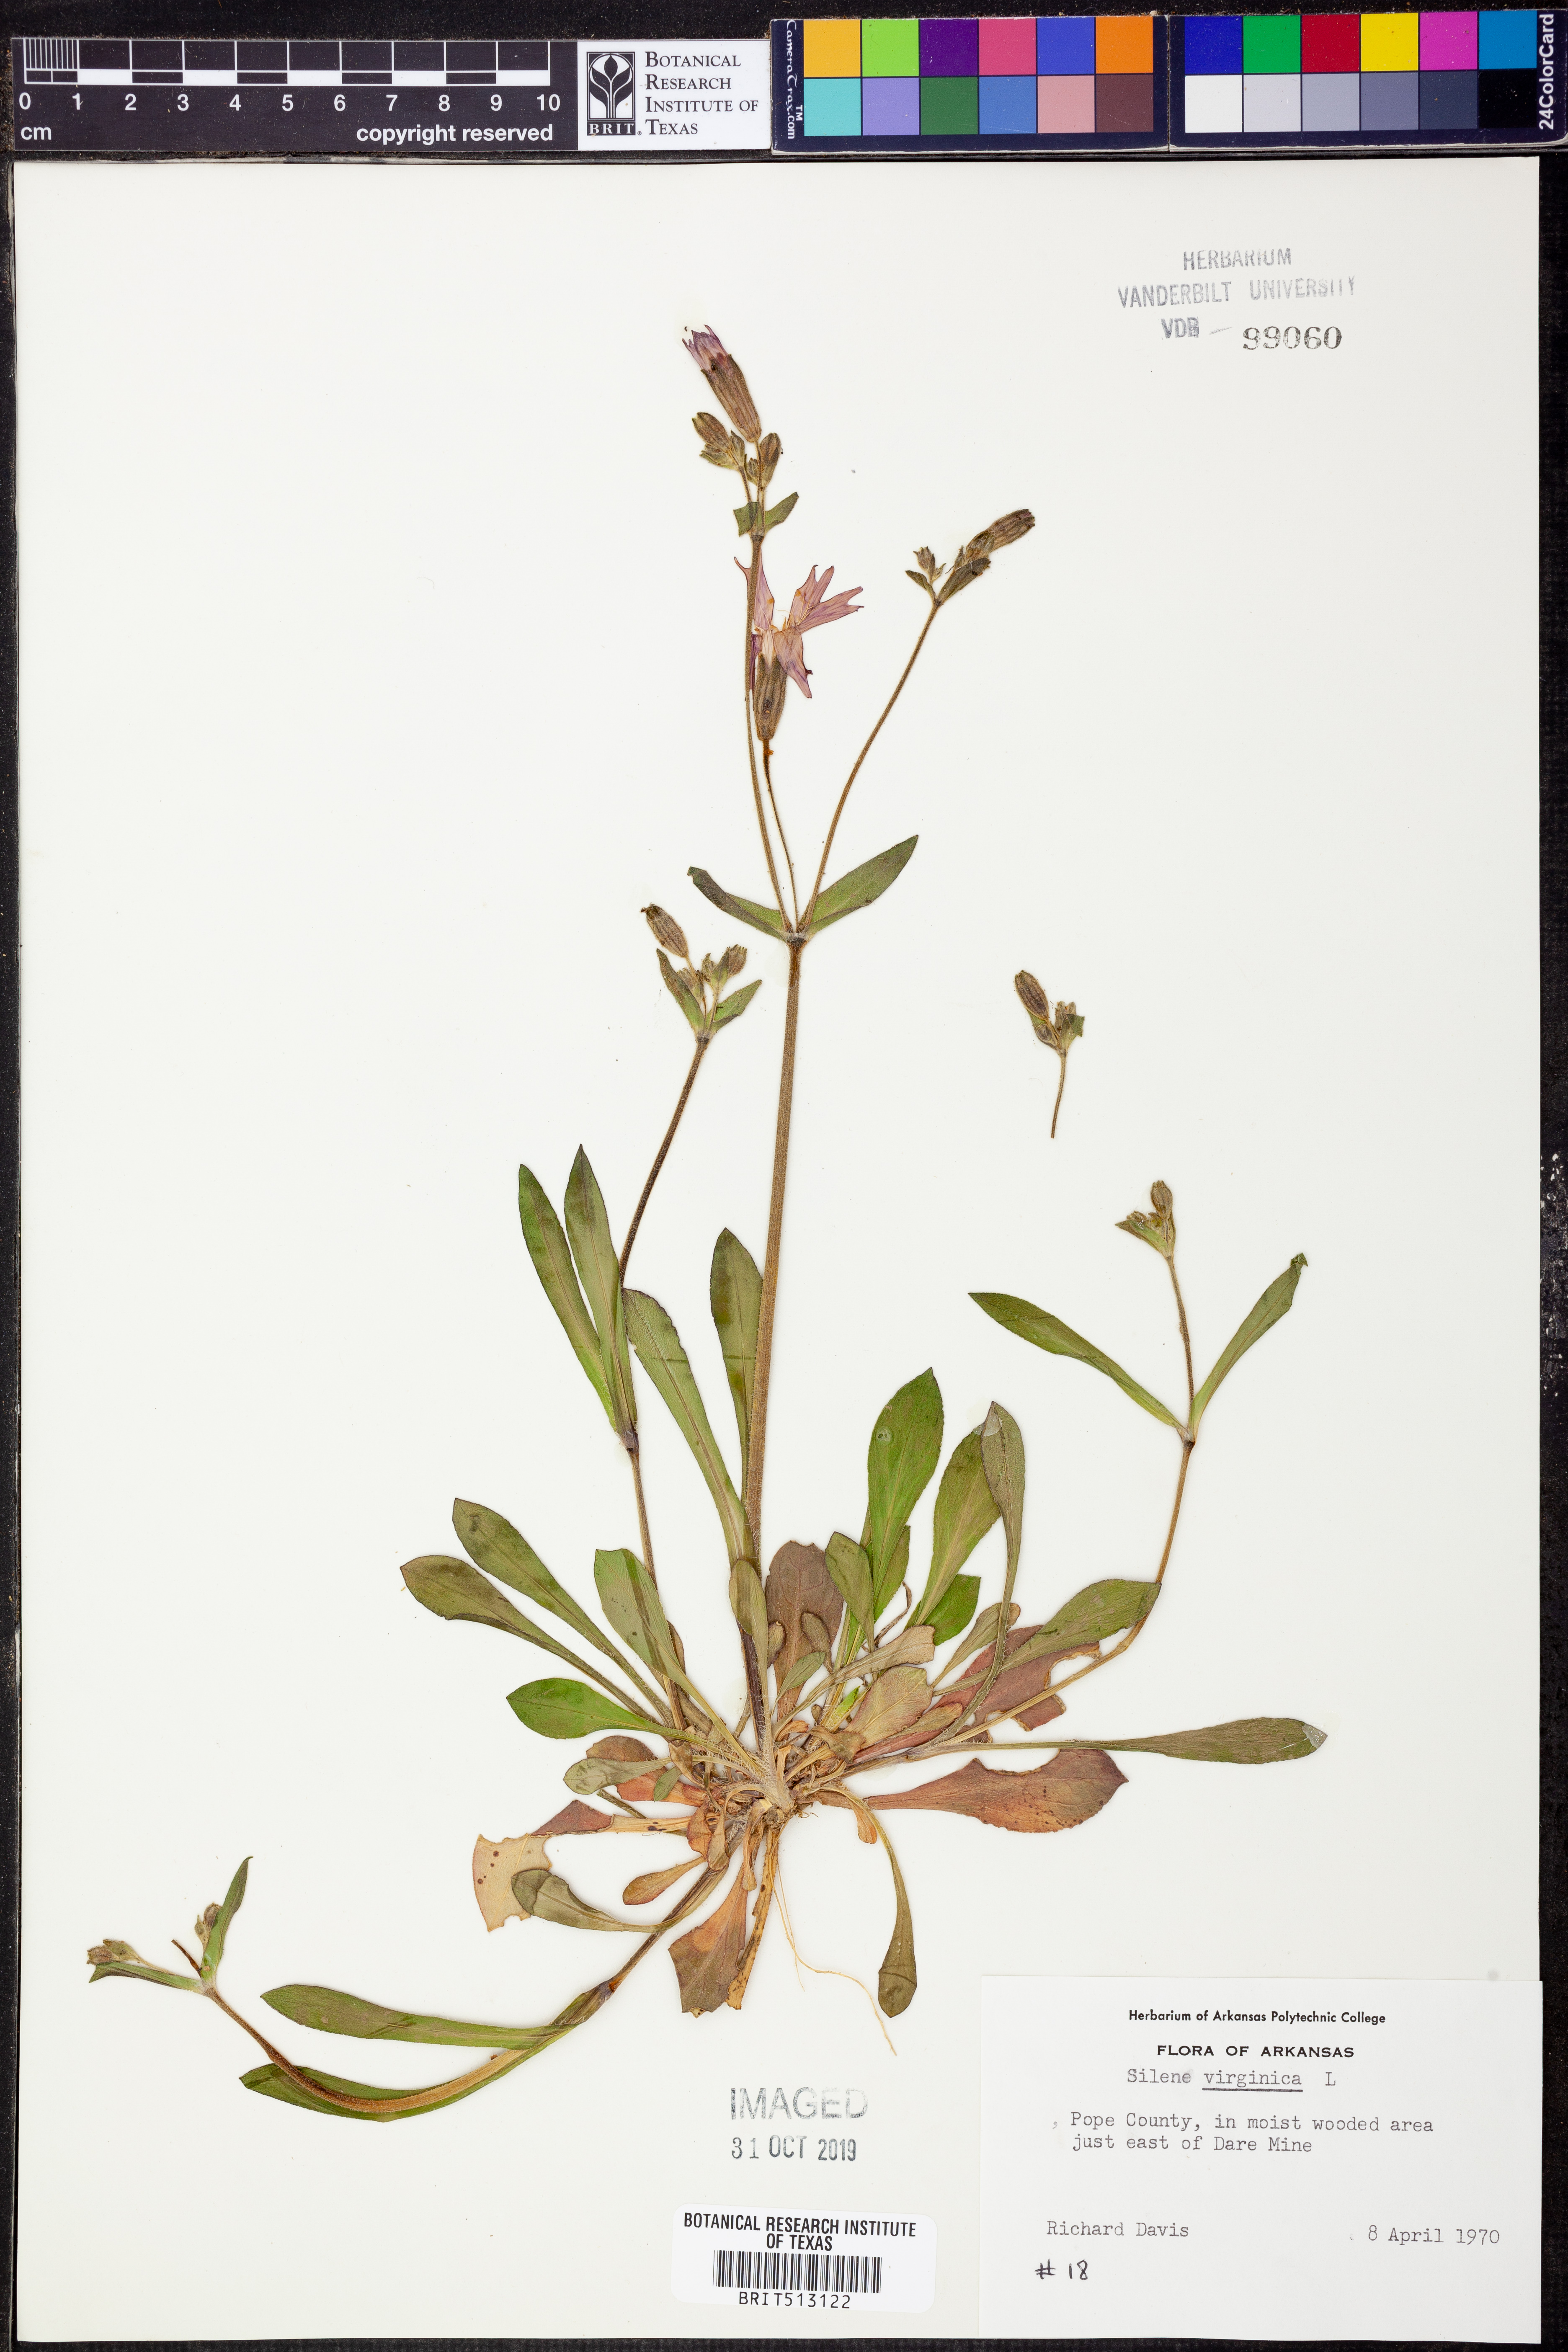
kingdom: Plantae
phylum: Tracheophyta
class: Magnoliopsida
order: Caryophyllales
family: Caryophyllaceae
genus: Silene
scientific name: Silene virginica
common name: Fire-pink
